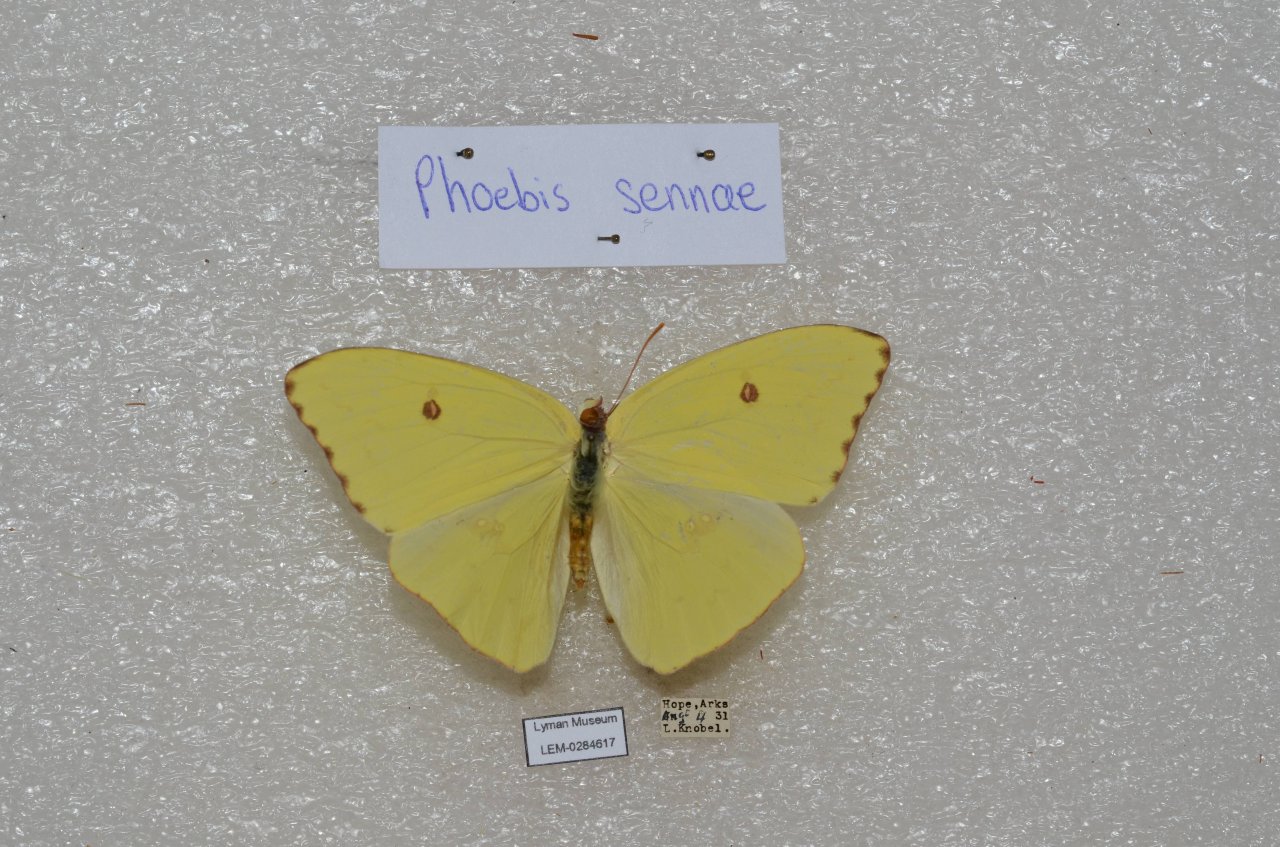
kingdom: Animalia
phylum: Arthropoda
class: Insecta
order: Lepidoptera
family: Pieridae
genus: Phoebis
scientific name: Phoebis sennae
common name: Cloudless Sulphur
